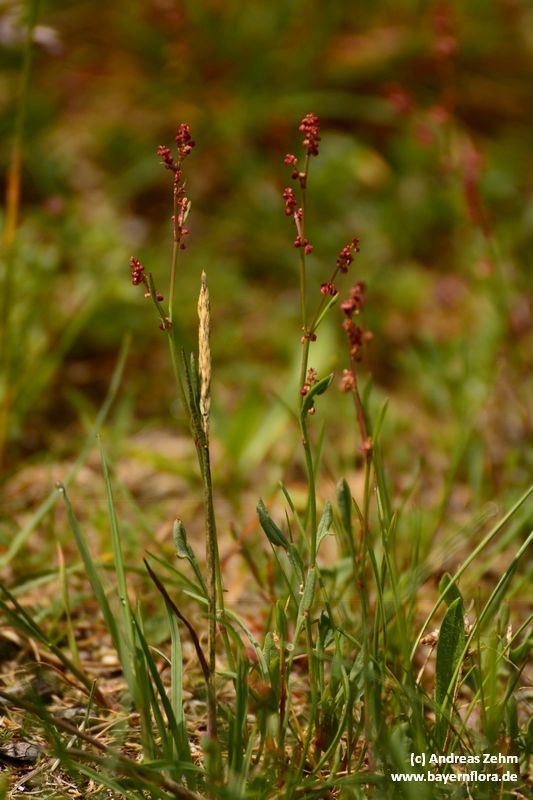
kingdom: Plantae
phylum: Tracheophyta
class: Magnoliopsida
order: Caryophyllales
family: Polygonaceae
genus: Rumex
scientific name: Rumex acetosella
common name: Common sheep sorrel
